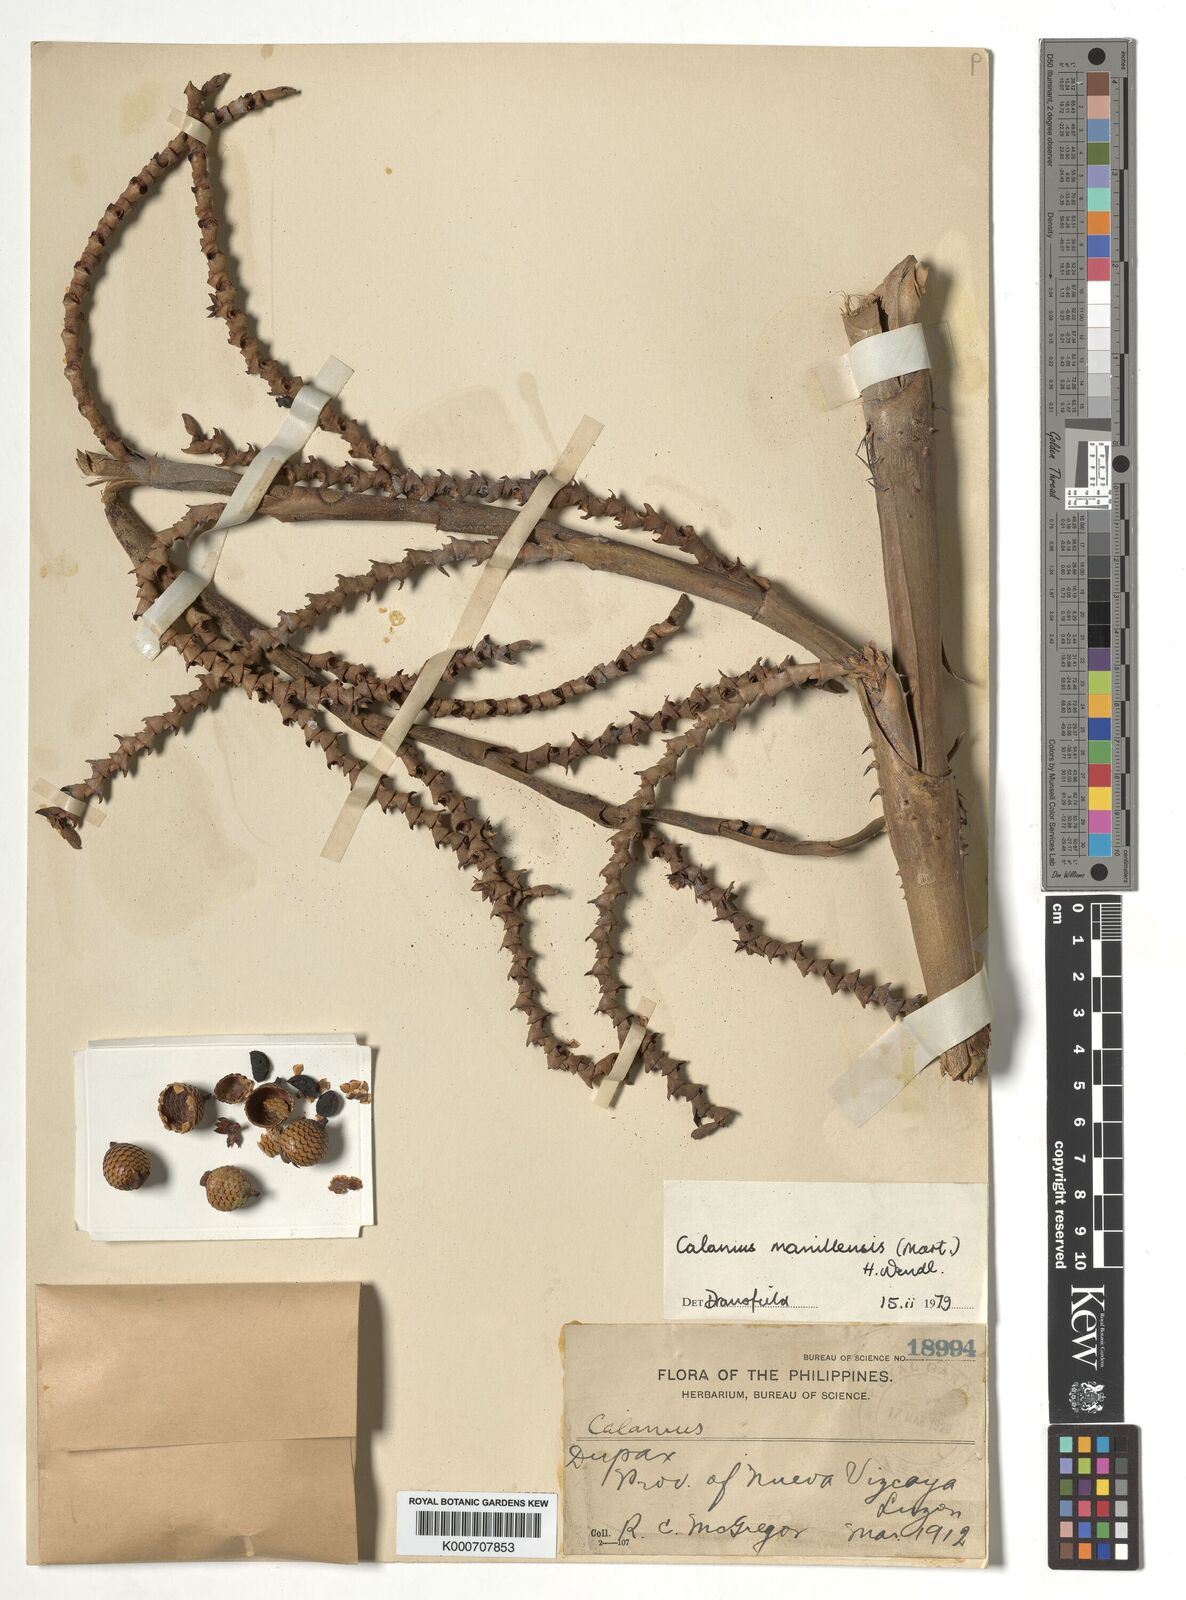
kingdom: Plantae
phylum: Tracheophyta
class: Liliopsida
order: Arecales
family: Arecaceae
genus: Calamus
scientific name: Calamus manillensis
